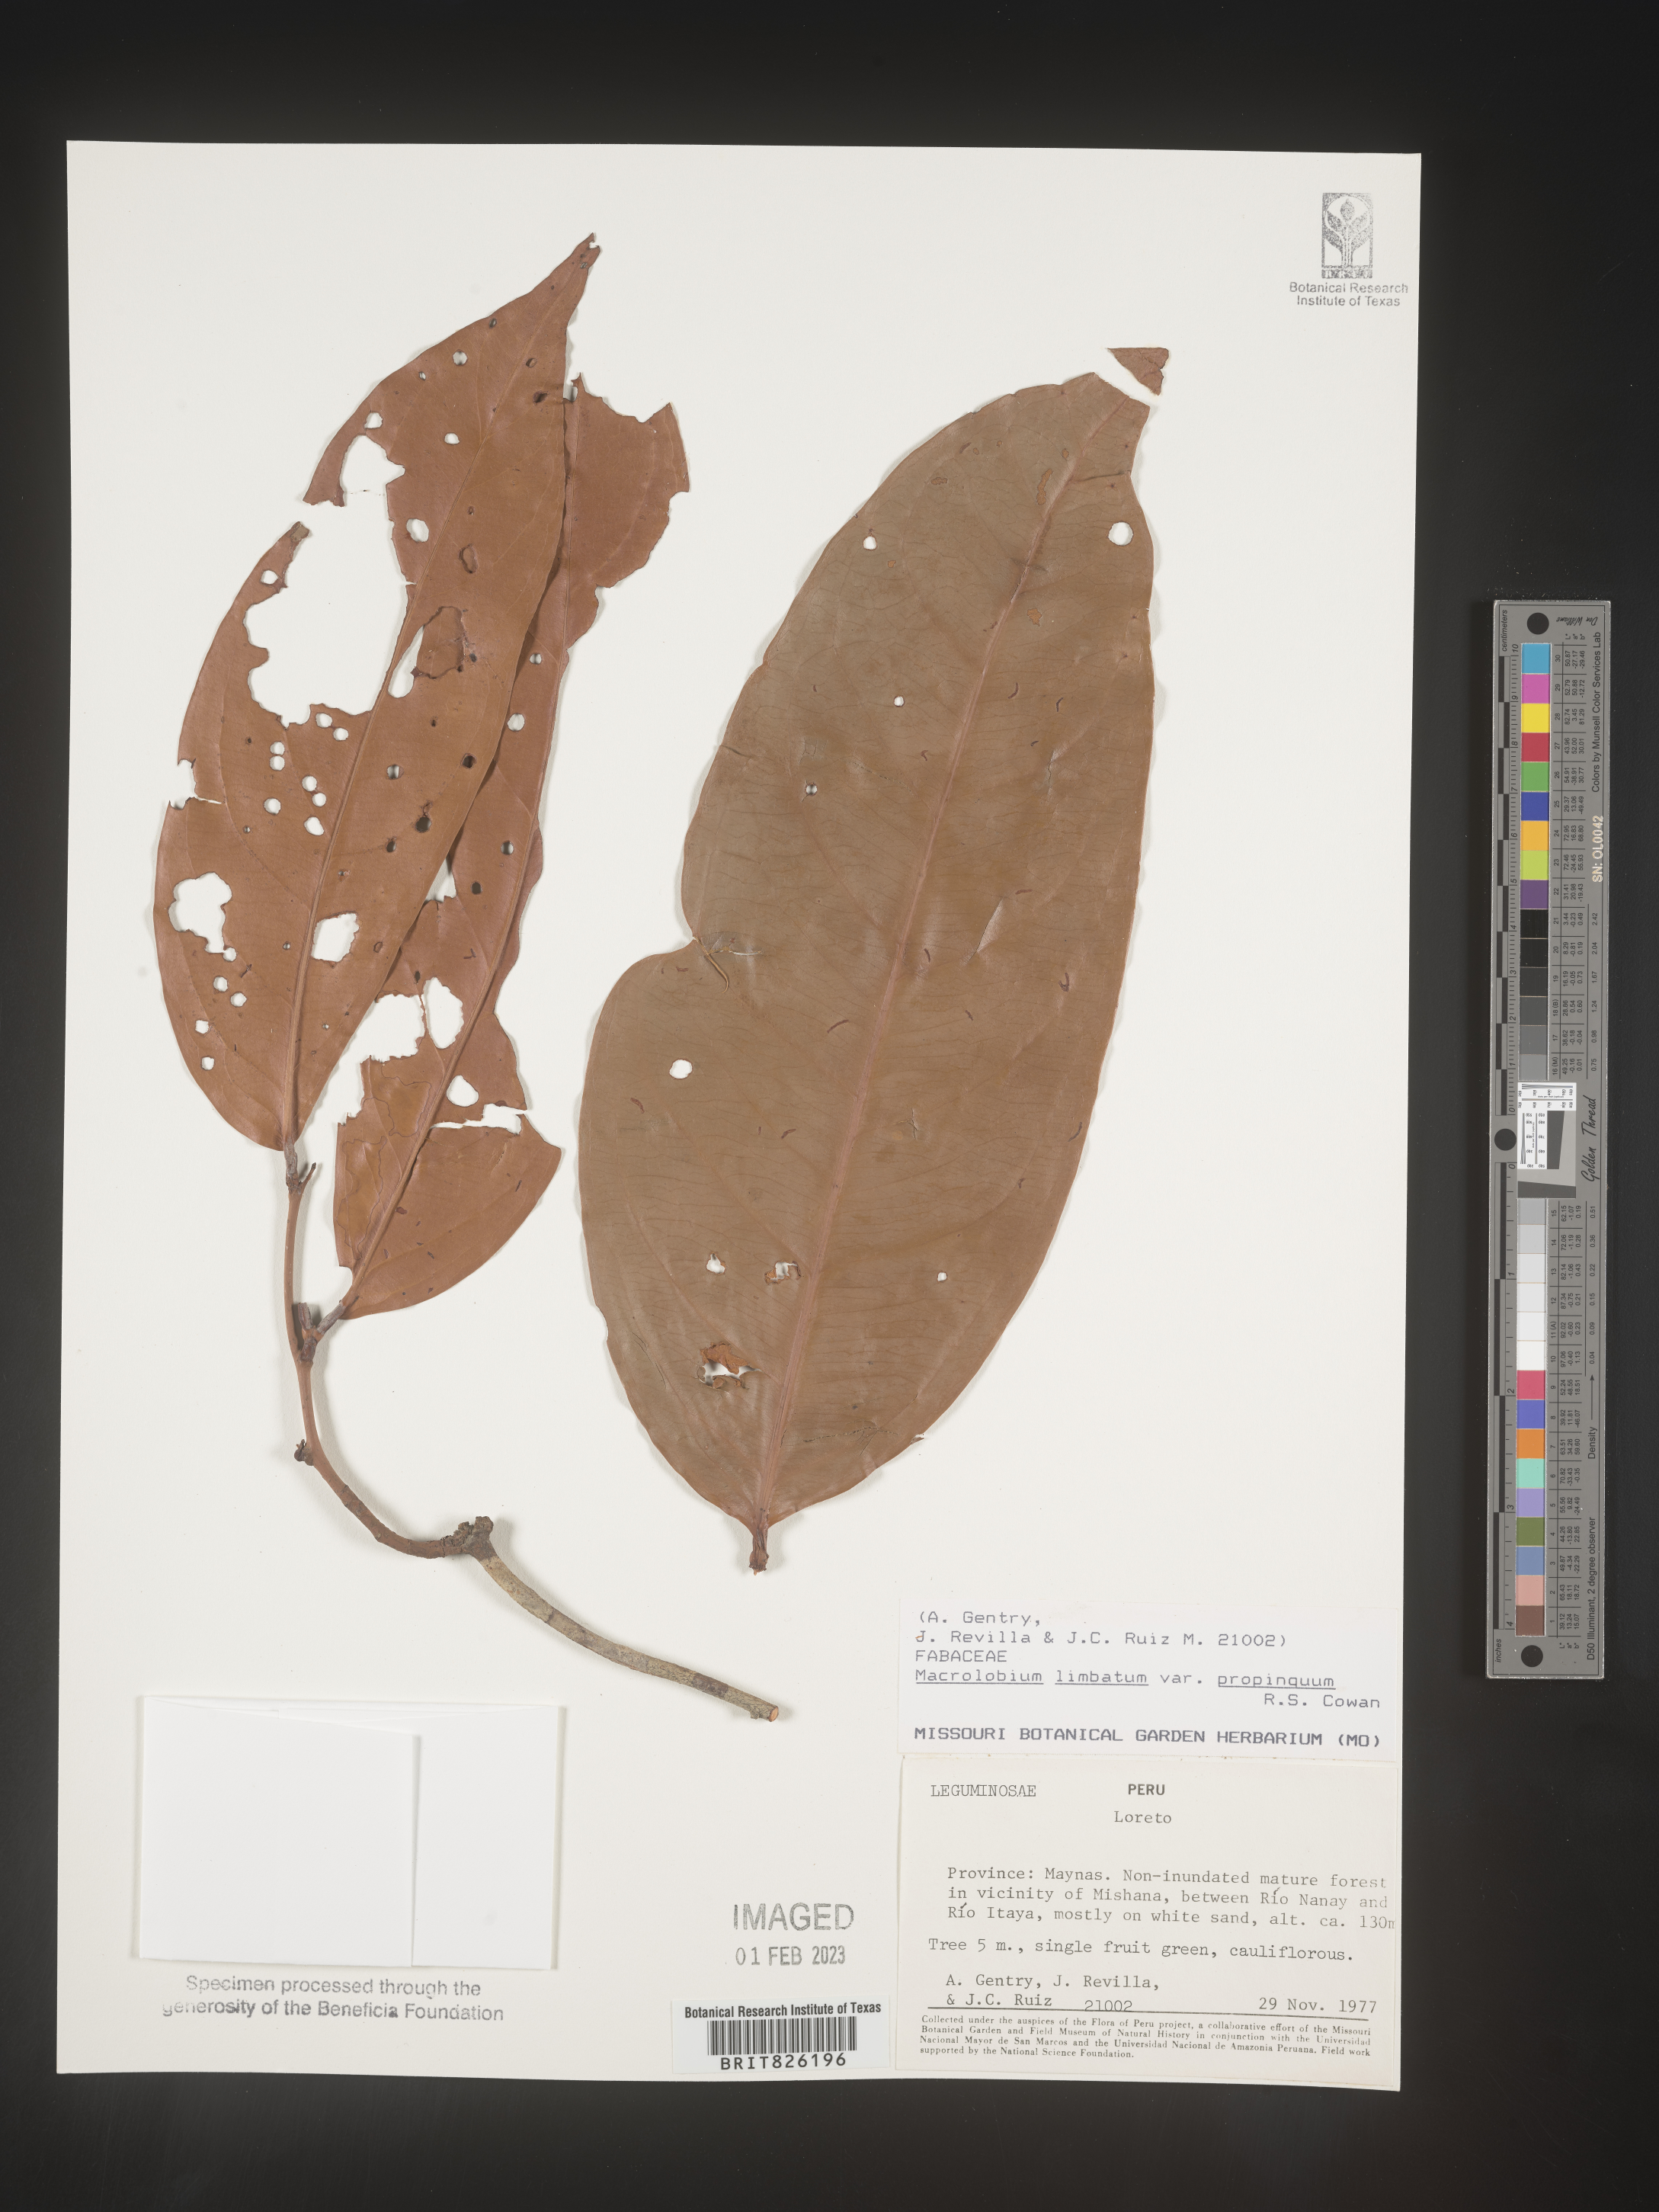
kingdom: Plantae
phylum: Tracheophyta
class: Magnoliopsida
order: Fabales
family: Fabaceae
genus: Macrolobium
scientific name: Macrolobium
